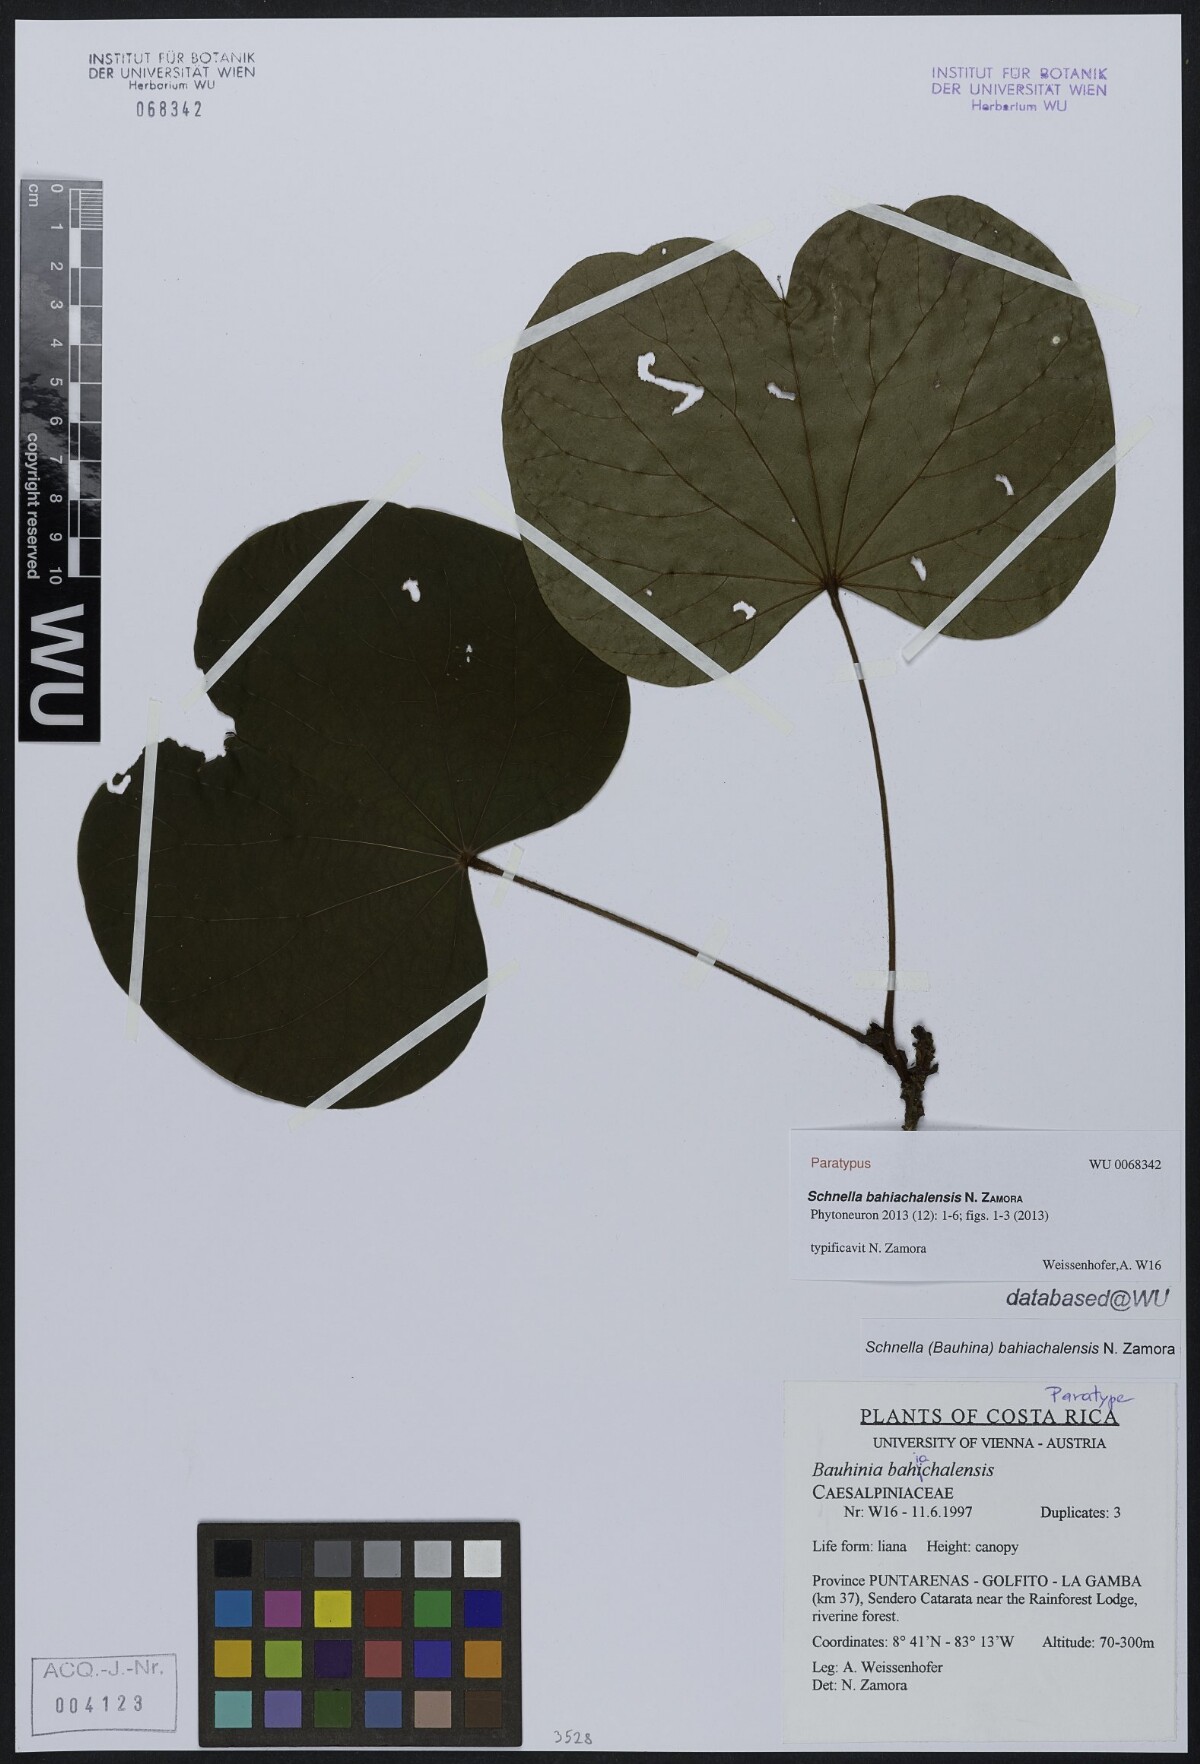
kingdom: Plantae
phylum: Tracheophyta
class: Magnoliopsida
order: Fabales
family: Fabaceae
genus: Schnella
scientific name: Schnella bahiachalensis
